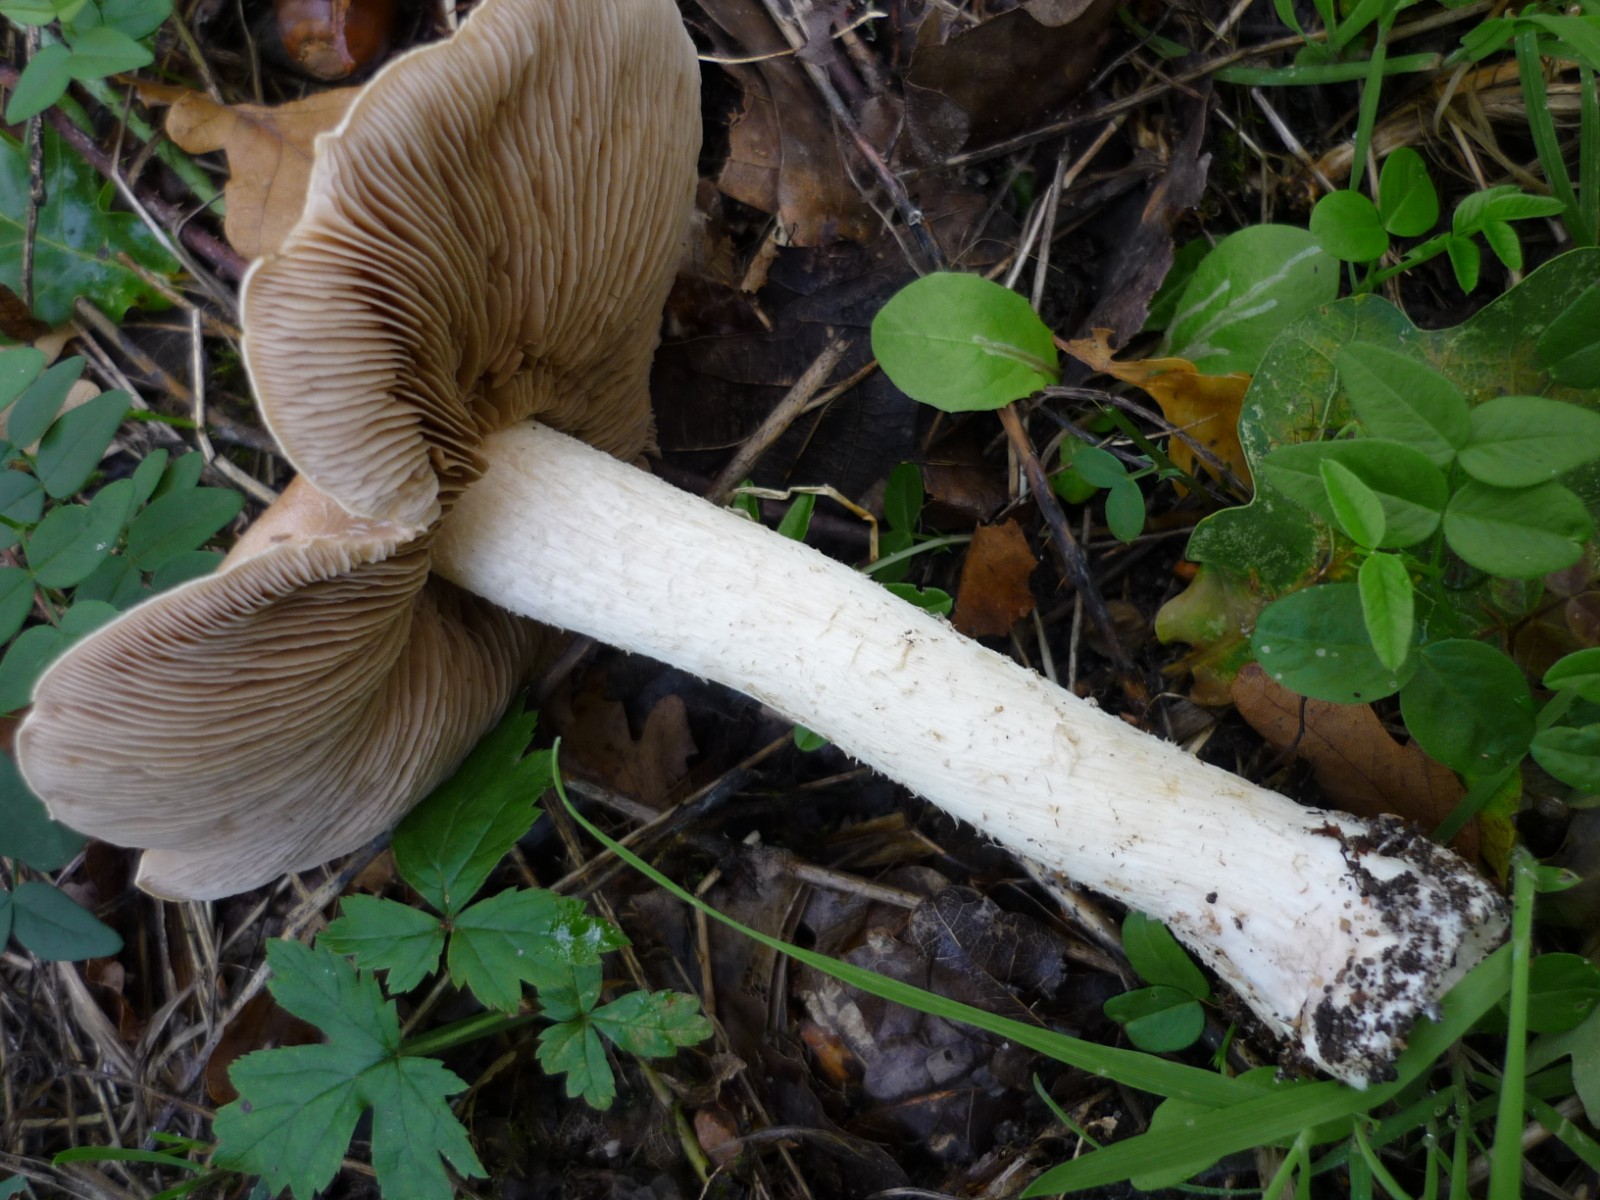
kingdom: Fungi
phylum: Basidiomycota
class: Agaricomycetes
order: Agaricales
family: Hymenogastraceae
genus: Hebeloma
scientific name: Hebeloma sinapizans
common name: ræddike-tåreblad
